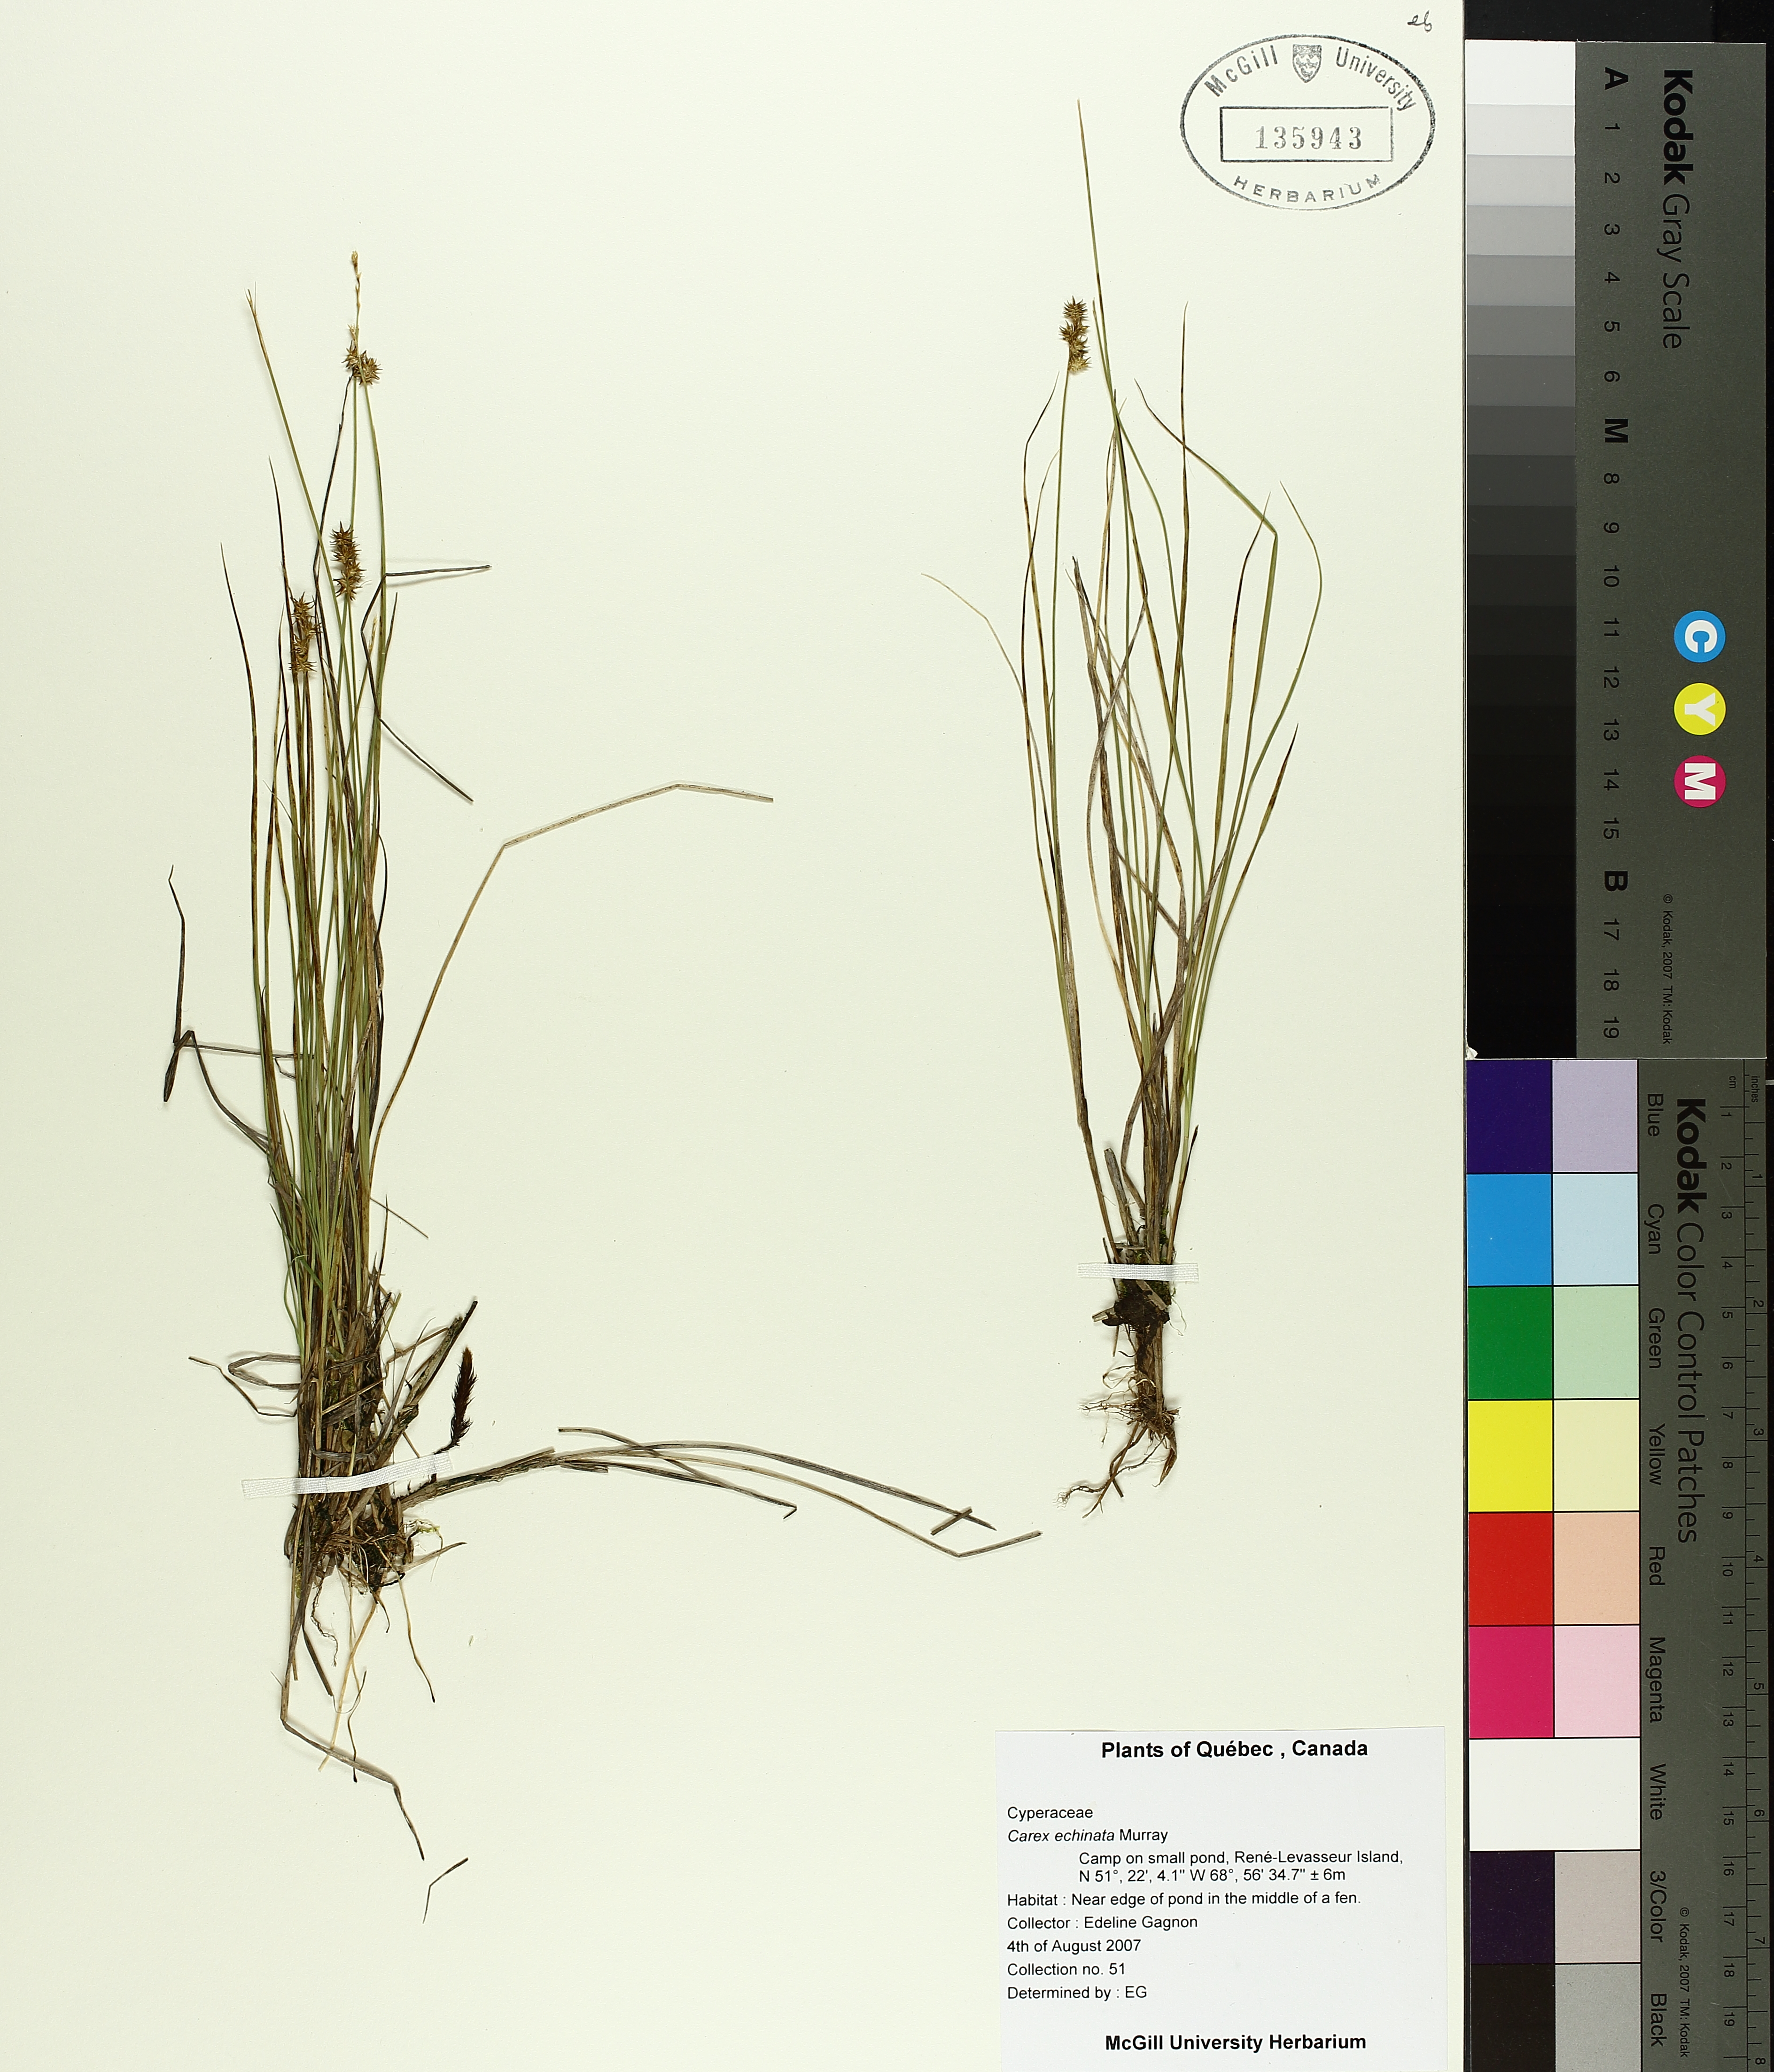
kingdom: Plantae
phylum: Tracheophyta
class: Liliopsida
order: Poales
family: Cyperaceae
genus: Carex
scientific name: Carex echinata
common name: Star sedge
